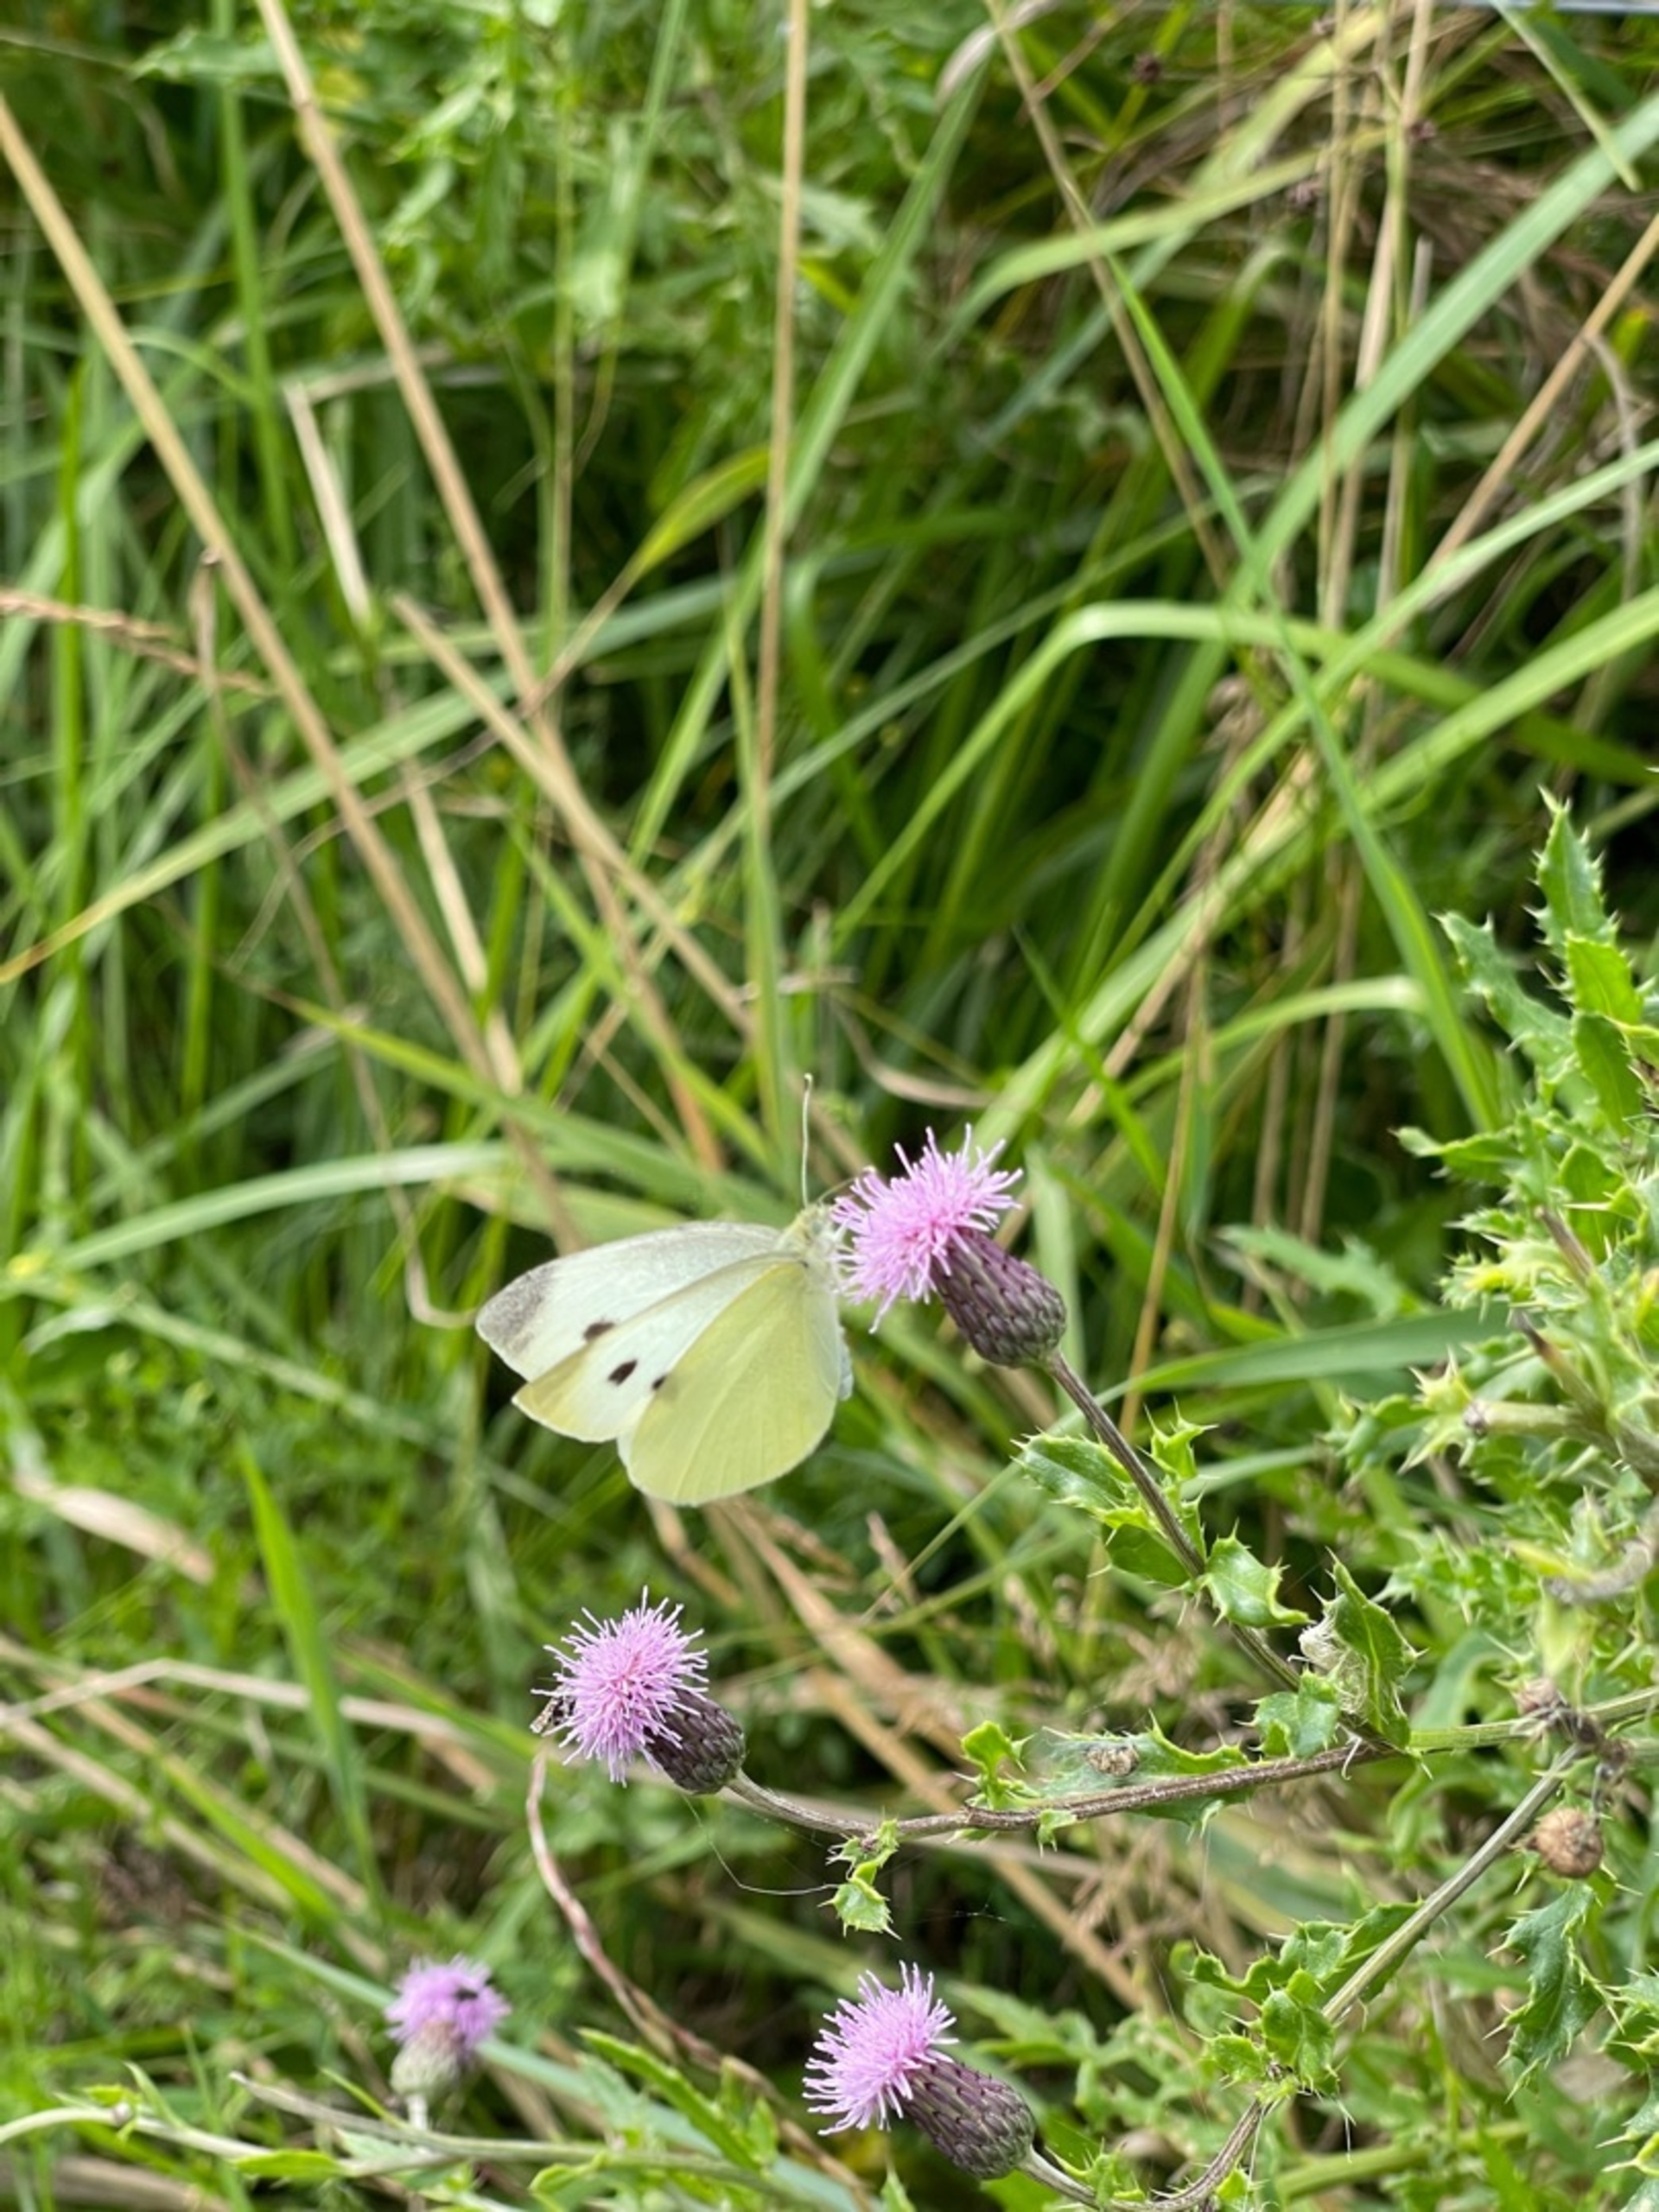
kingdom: Animalia
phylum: Arthropoda
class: Insecta
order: Lepidoptera
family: Pieridae
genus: Pieris
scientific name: Pieris rapae
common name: Lille kålsommerfugl
